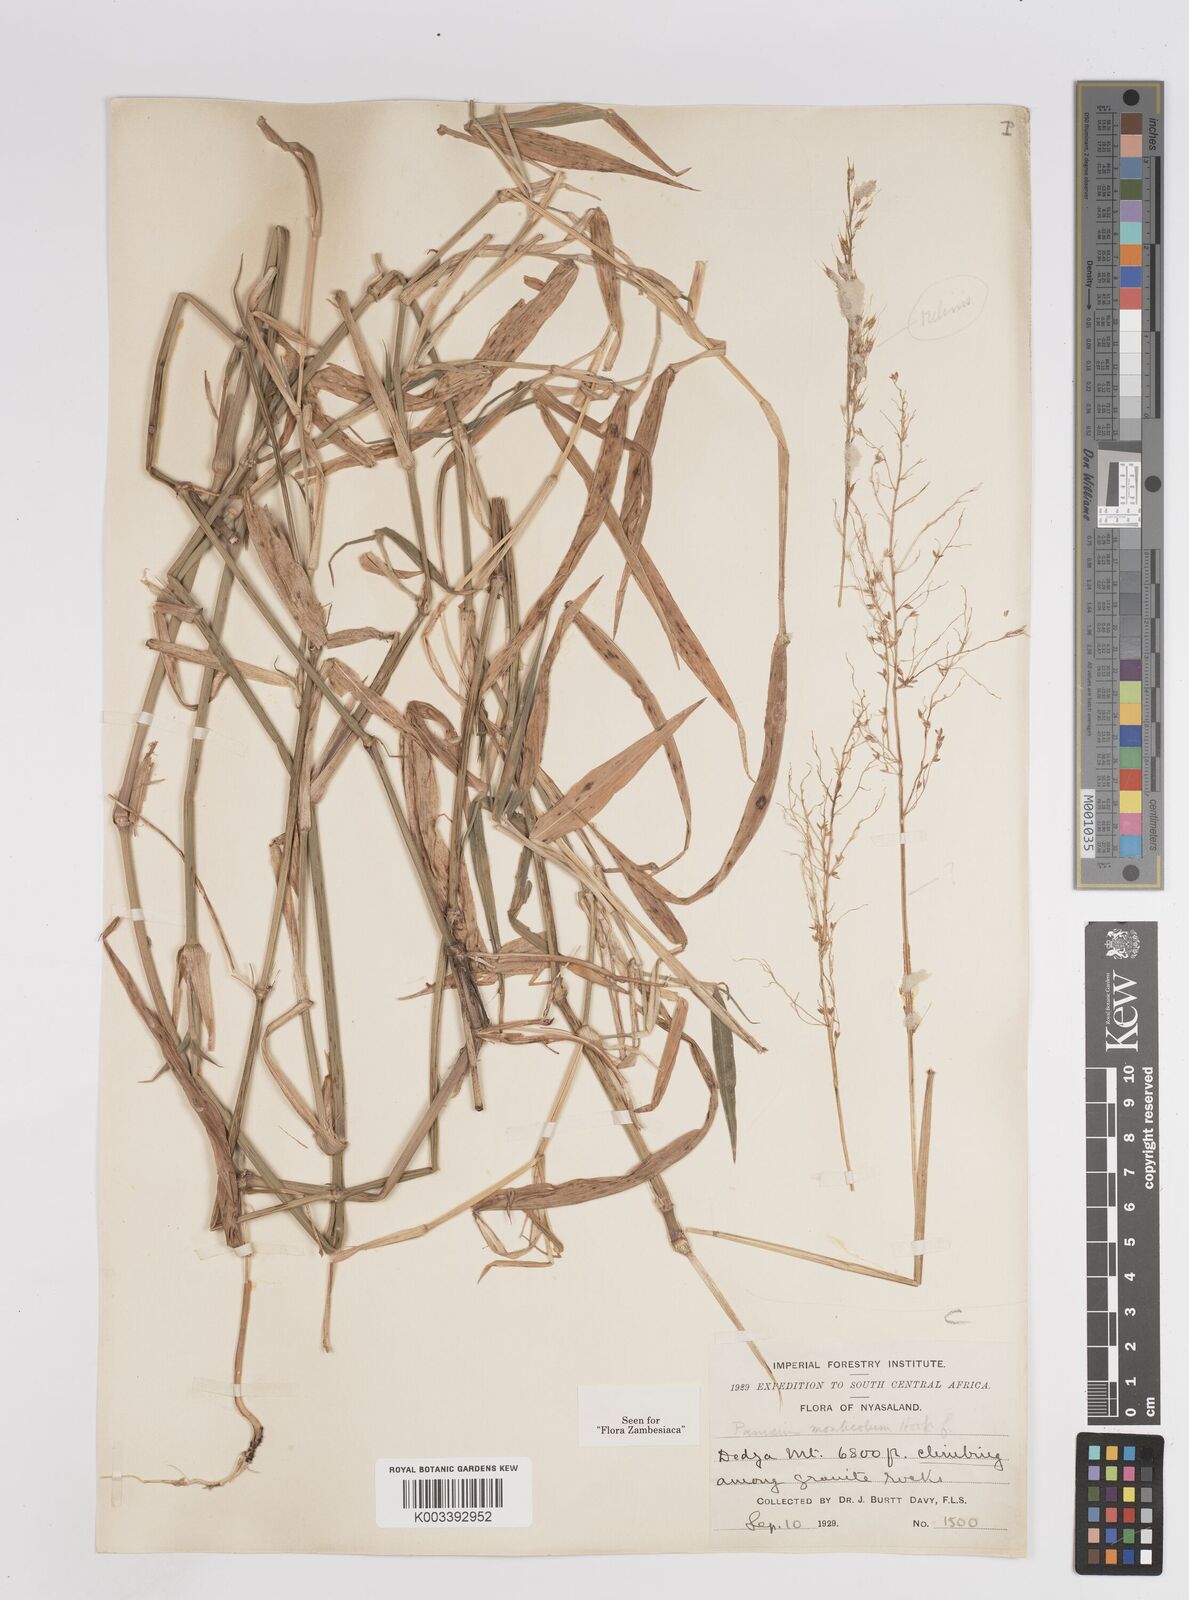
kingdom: Plantae
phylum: Tracheophyta
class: Liliopsida
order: Poales
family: Poaceae
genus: Panicum
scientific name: Panicum monticola
